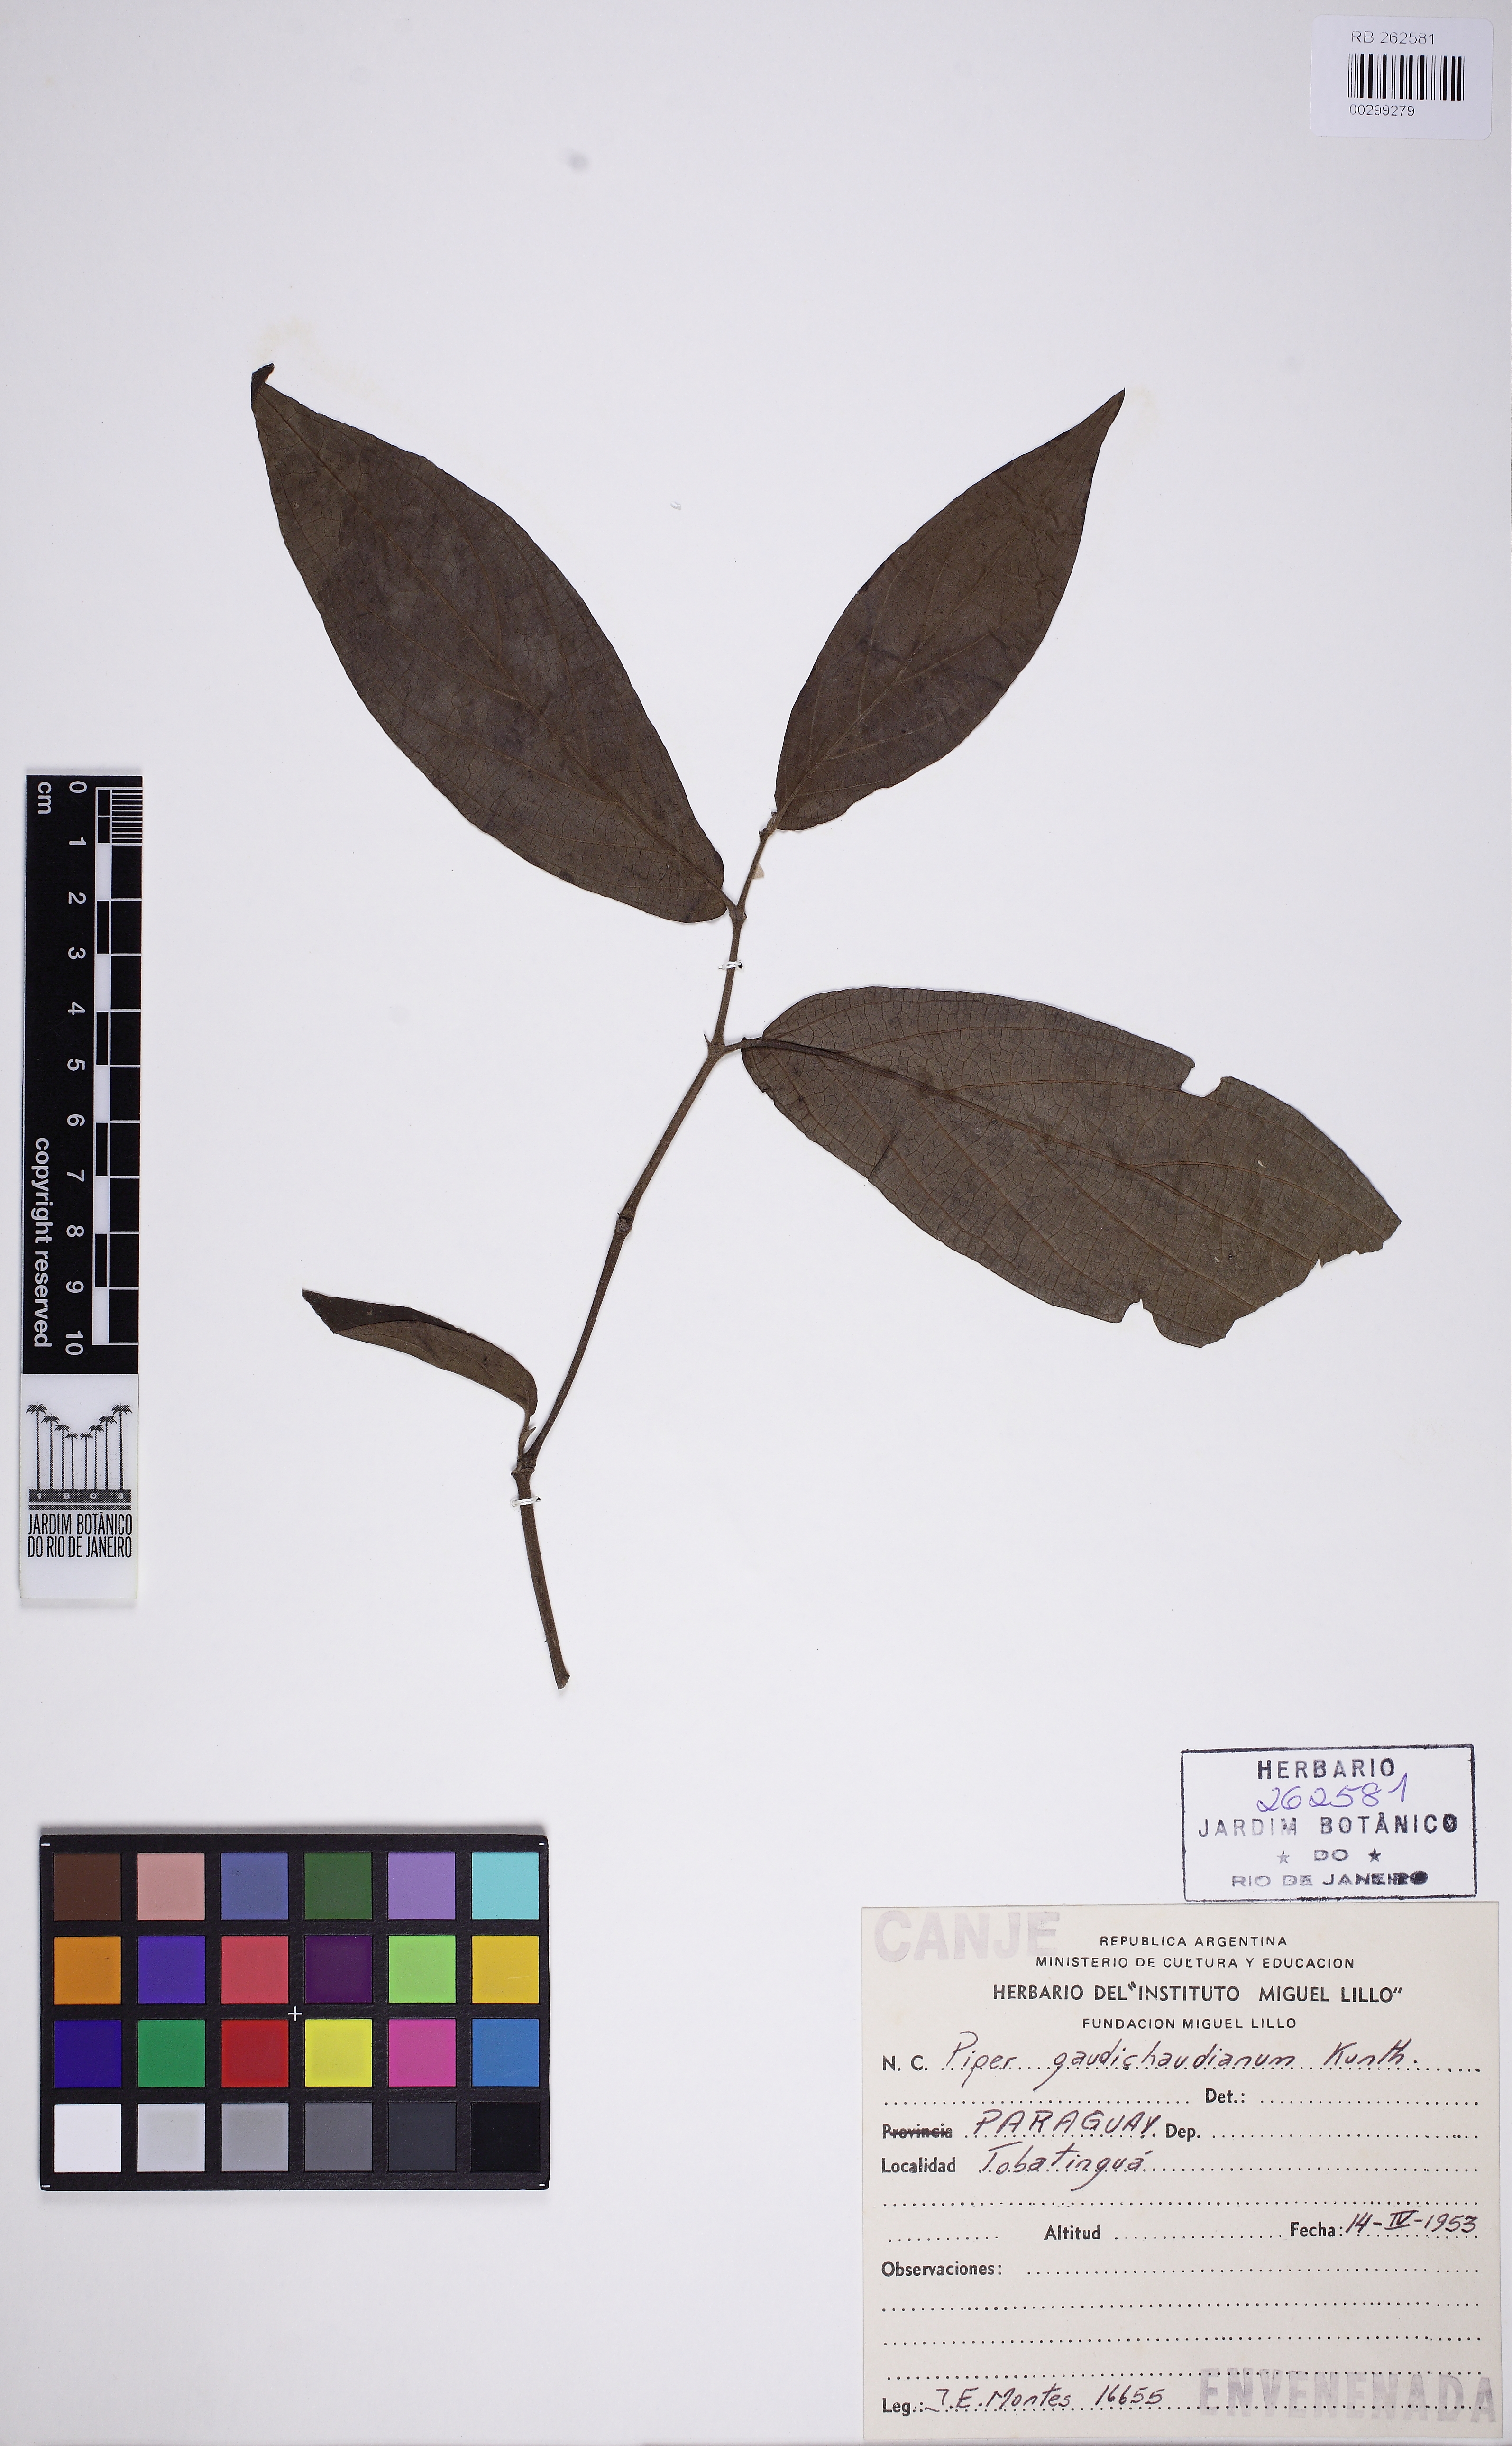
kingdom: Plantae
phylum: Tracheophyta
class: Magnoliopsida
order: Piperales
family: Piperaceae
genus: Piper
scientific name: Piper gaudichaudianum
